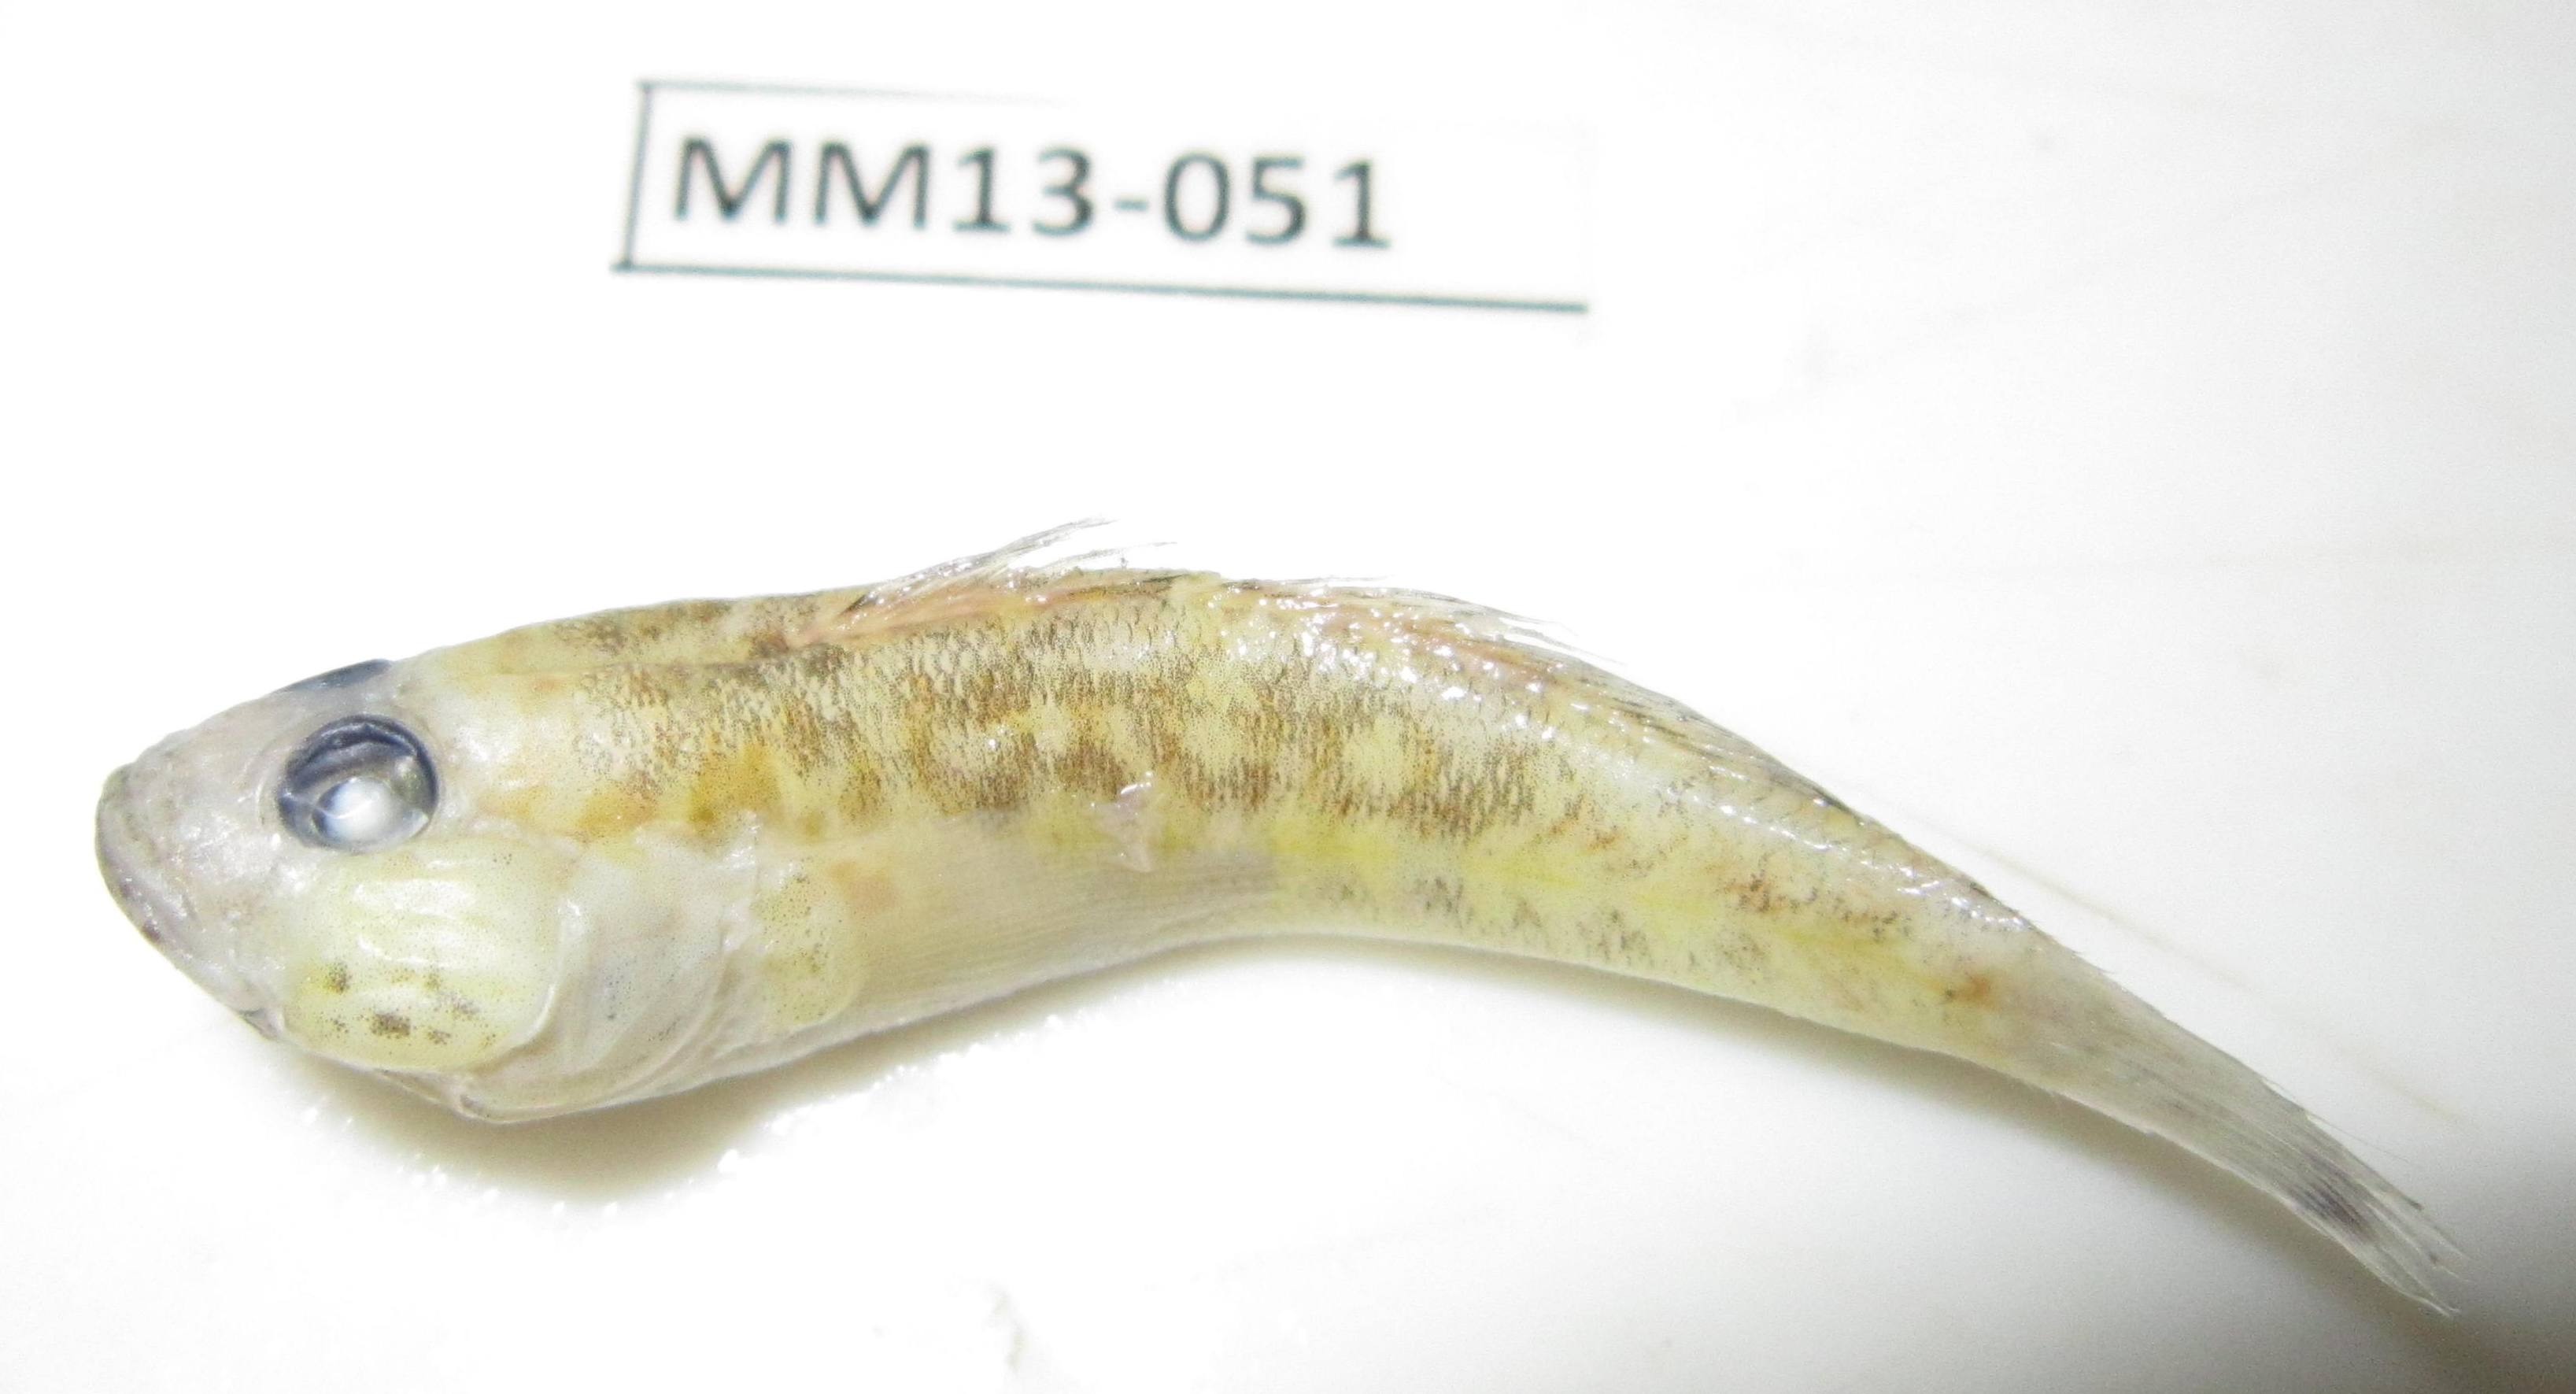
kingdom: Animalia
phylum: Chordata
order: Perciformes
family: Gobiidae
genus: Caffrogobius
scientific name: Caffrogobius
